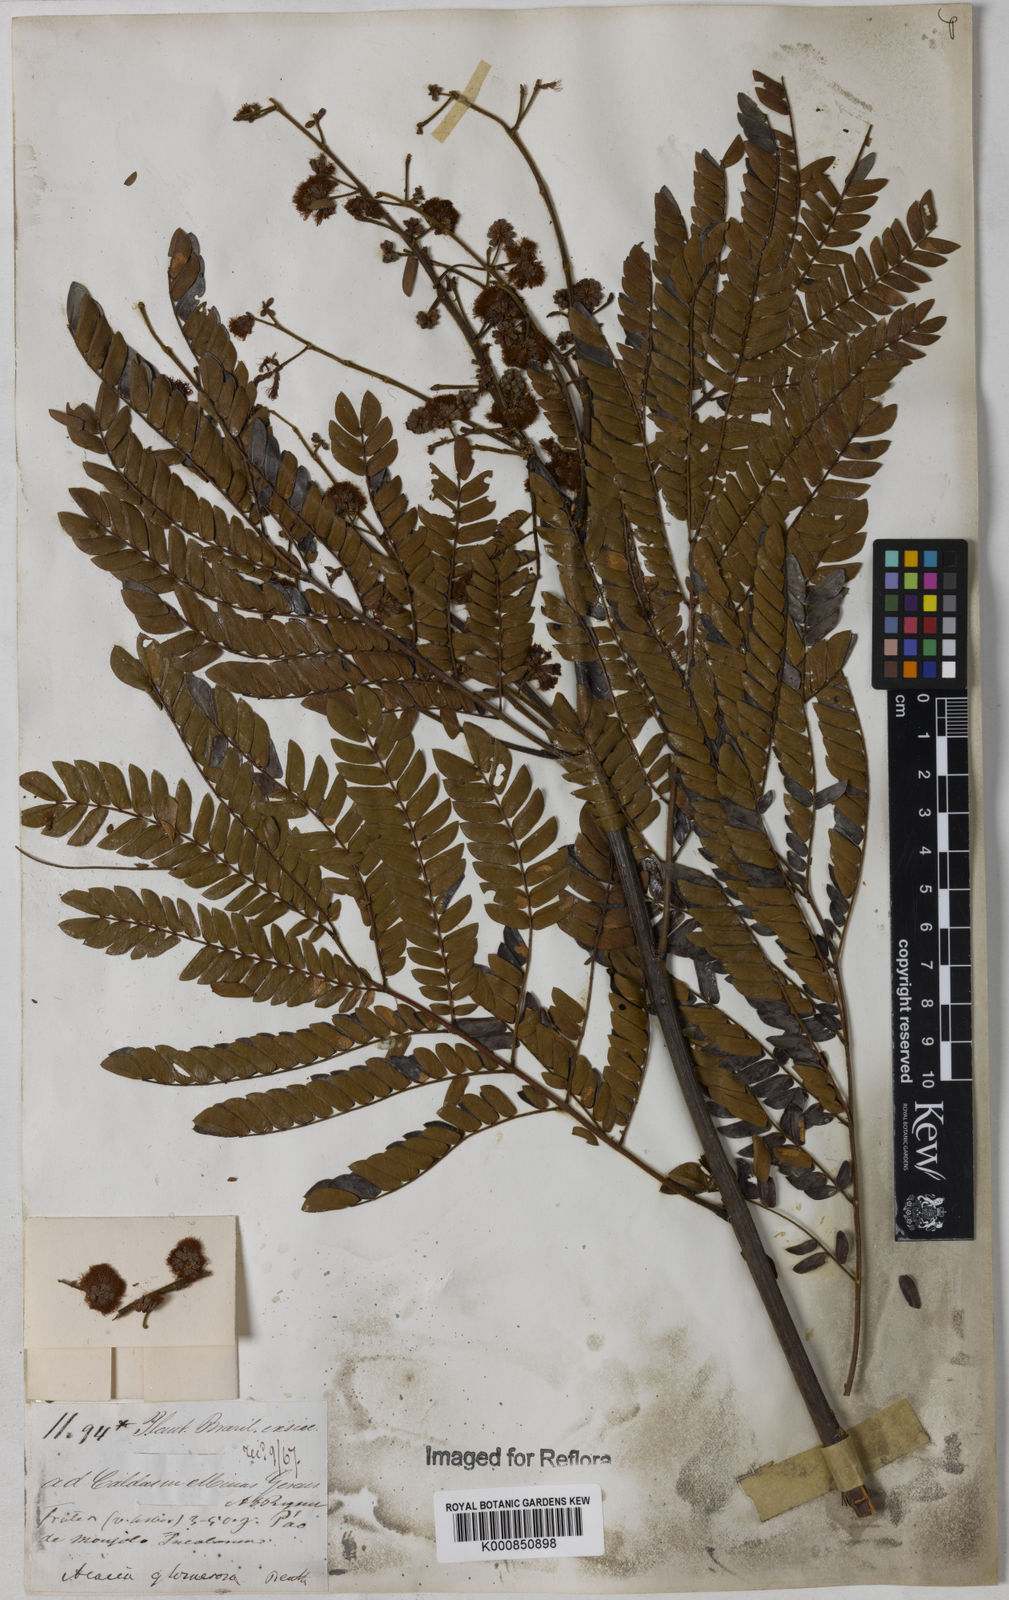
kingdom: Plantae
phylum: Tracheophyta
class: Magnoliopsida
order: Fabales
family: Fabaceae
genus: Senegalia
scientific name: Senegalia polyphylla
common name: White-tamarind
